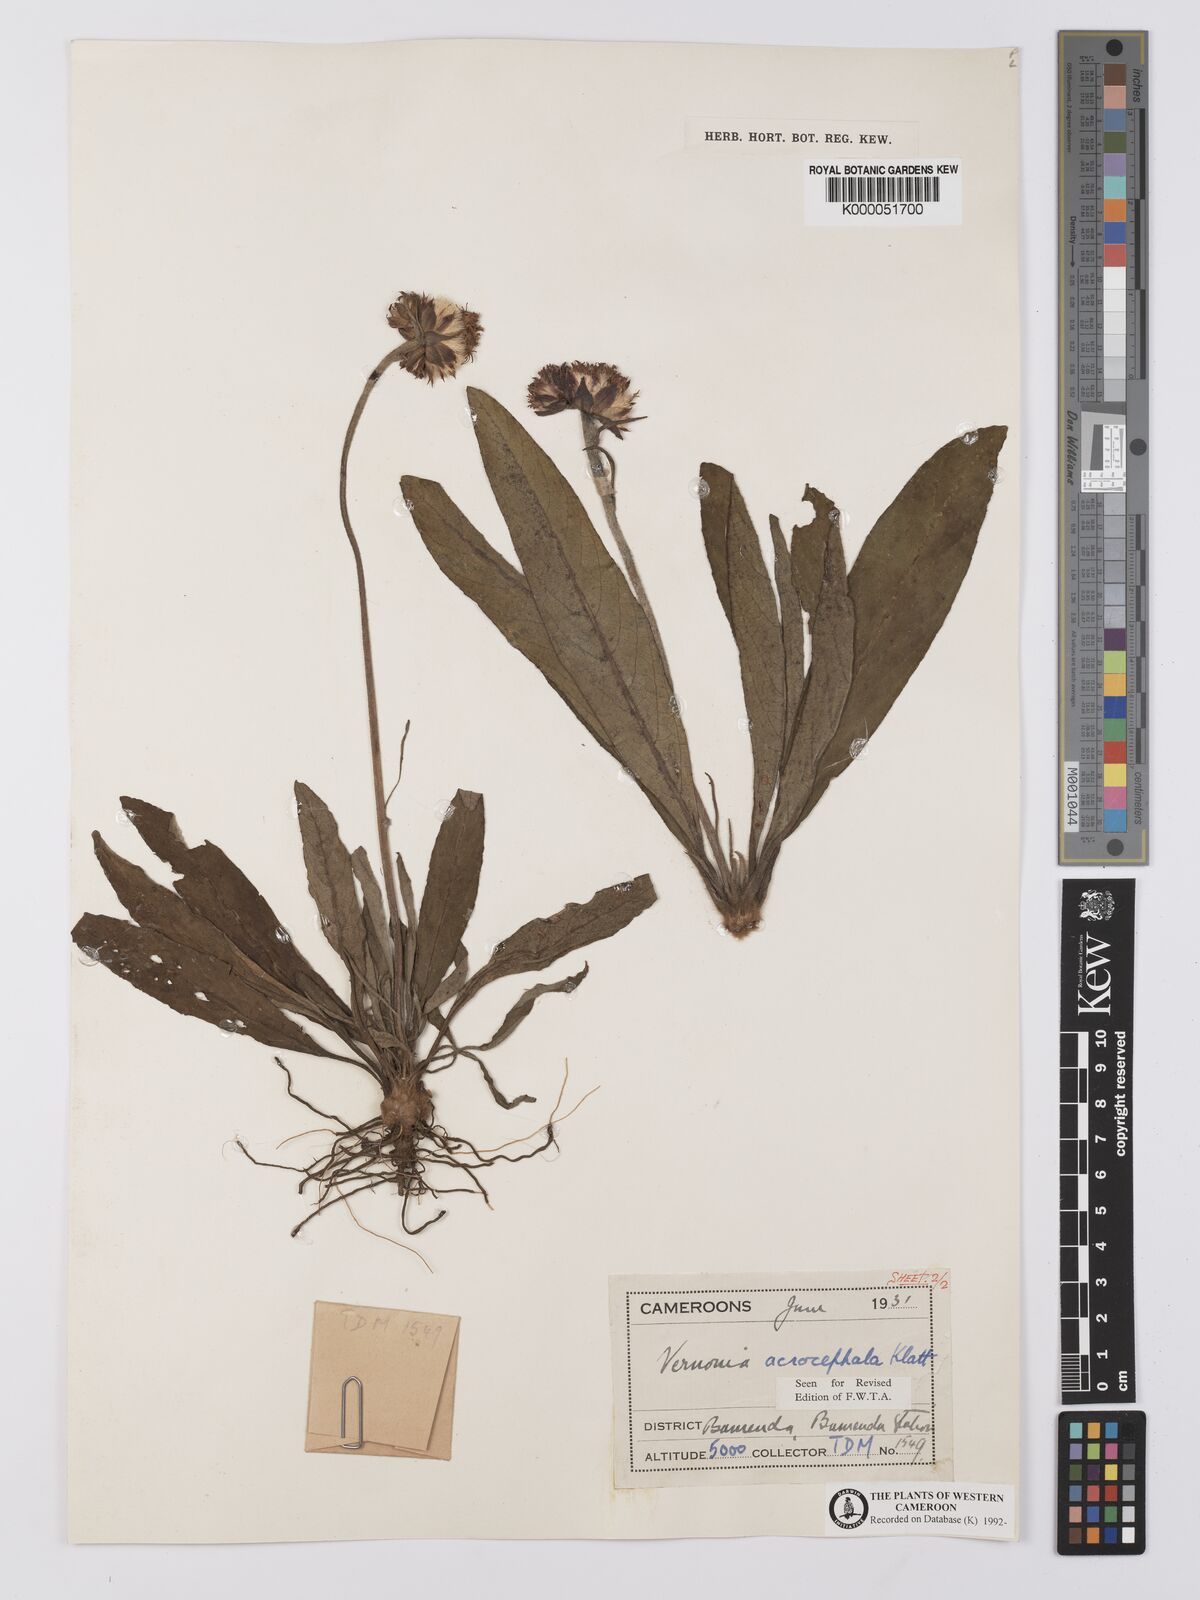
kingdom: Plantae
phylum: Tracheophyta
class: Magnoliopsida
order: Asterales
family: Asteraceae
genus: Vernonella
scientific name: Vernonella acrocephala
